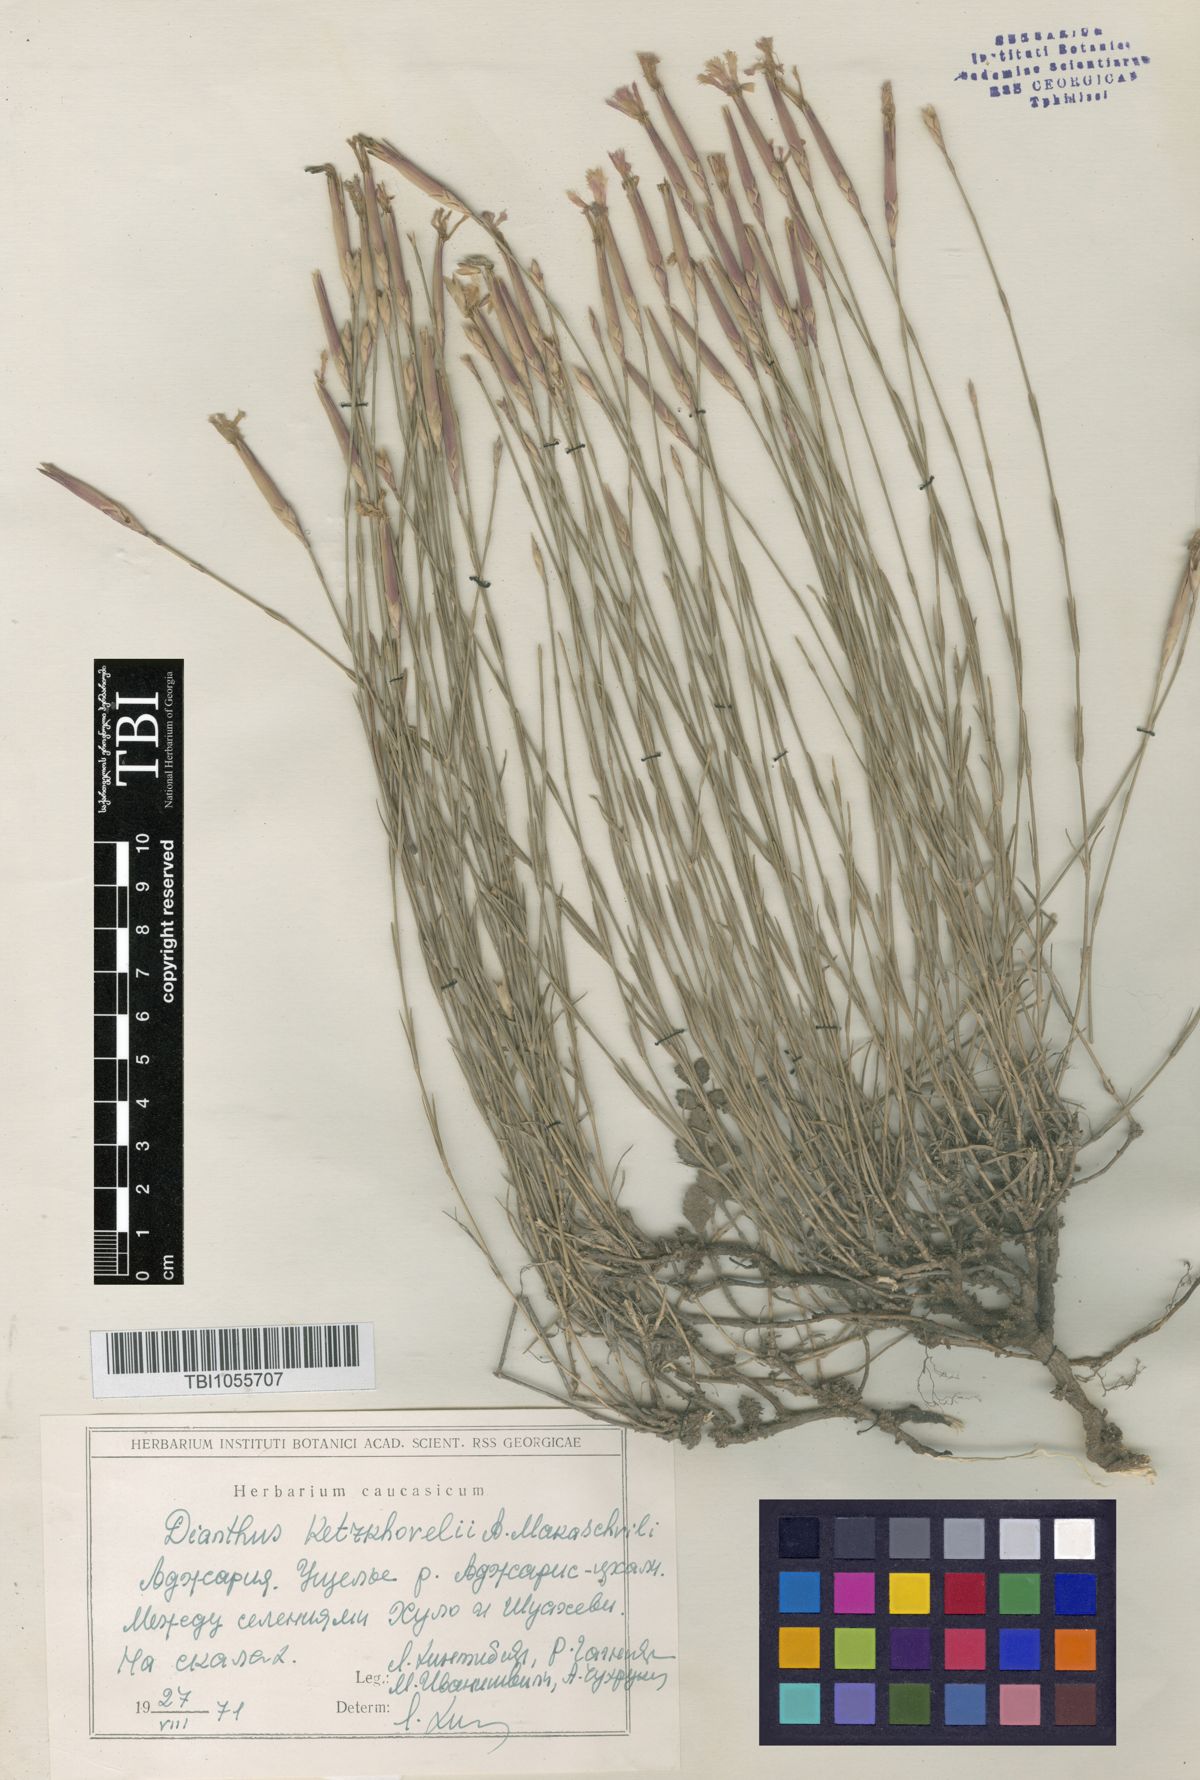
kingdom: Plantae
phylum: Tracheophyta
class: Magnoliopsida
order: Caryophyllales
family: Caryophyllaceae
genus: Dianthus
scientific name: Dianthus orientalis
